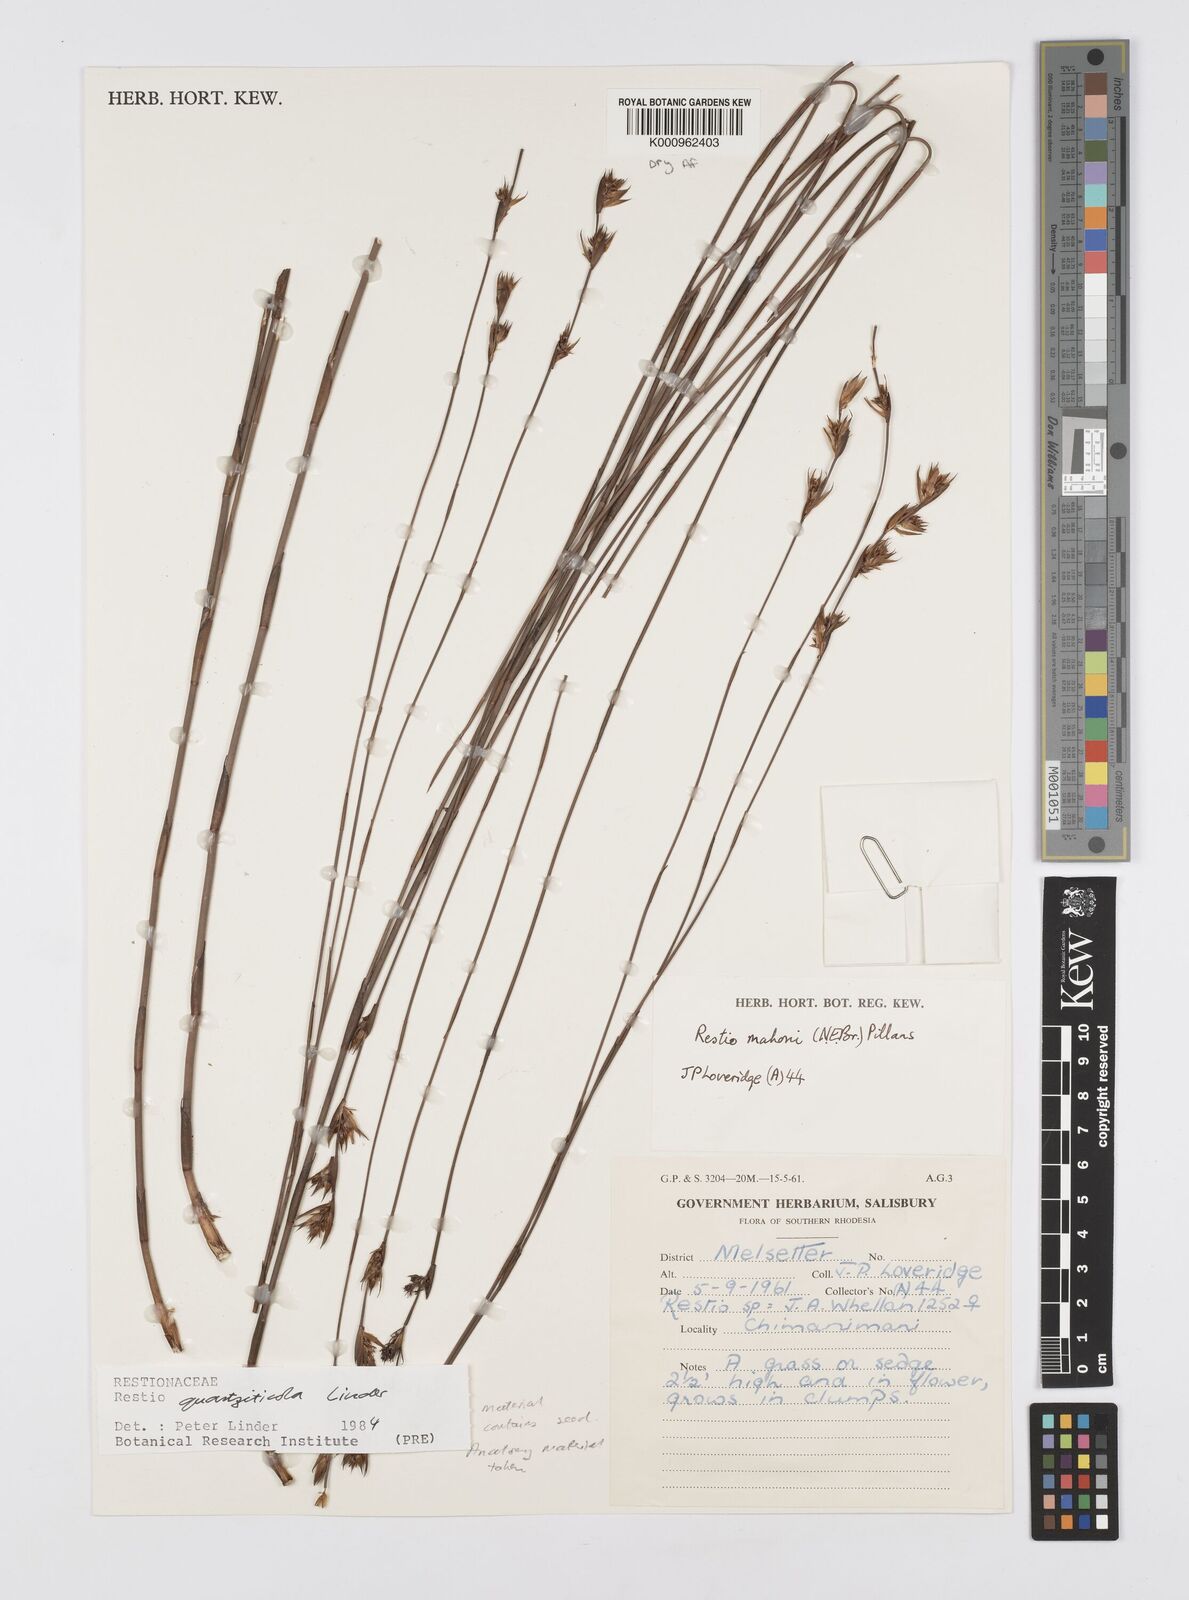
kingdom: Plantae
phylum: Tracheophyta
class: Liliopsida
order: Poales
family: Restionaceae
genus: Platycaulos
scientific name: Platycaulos quartziticola
